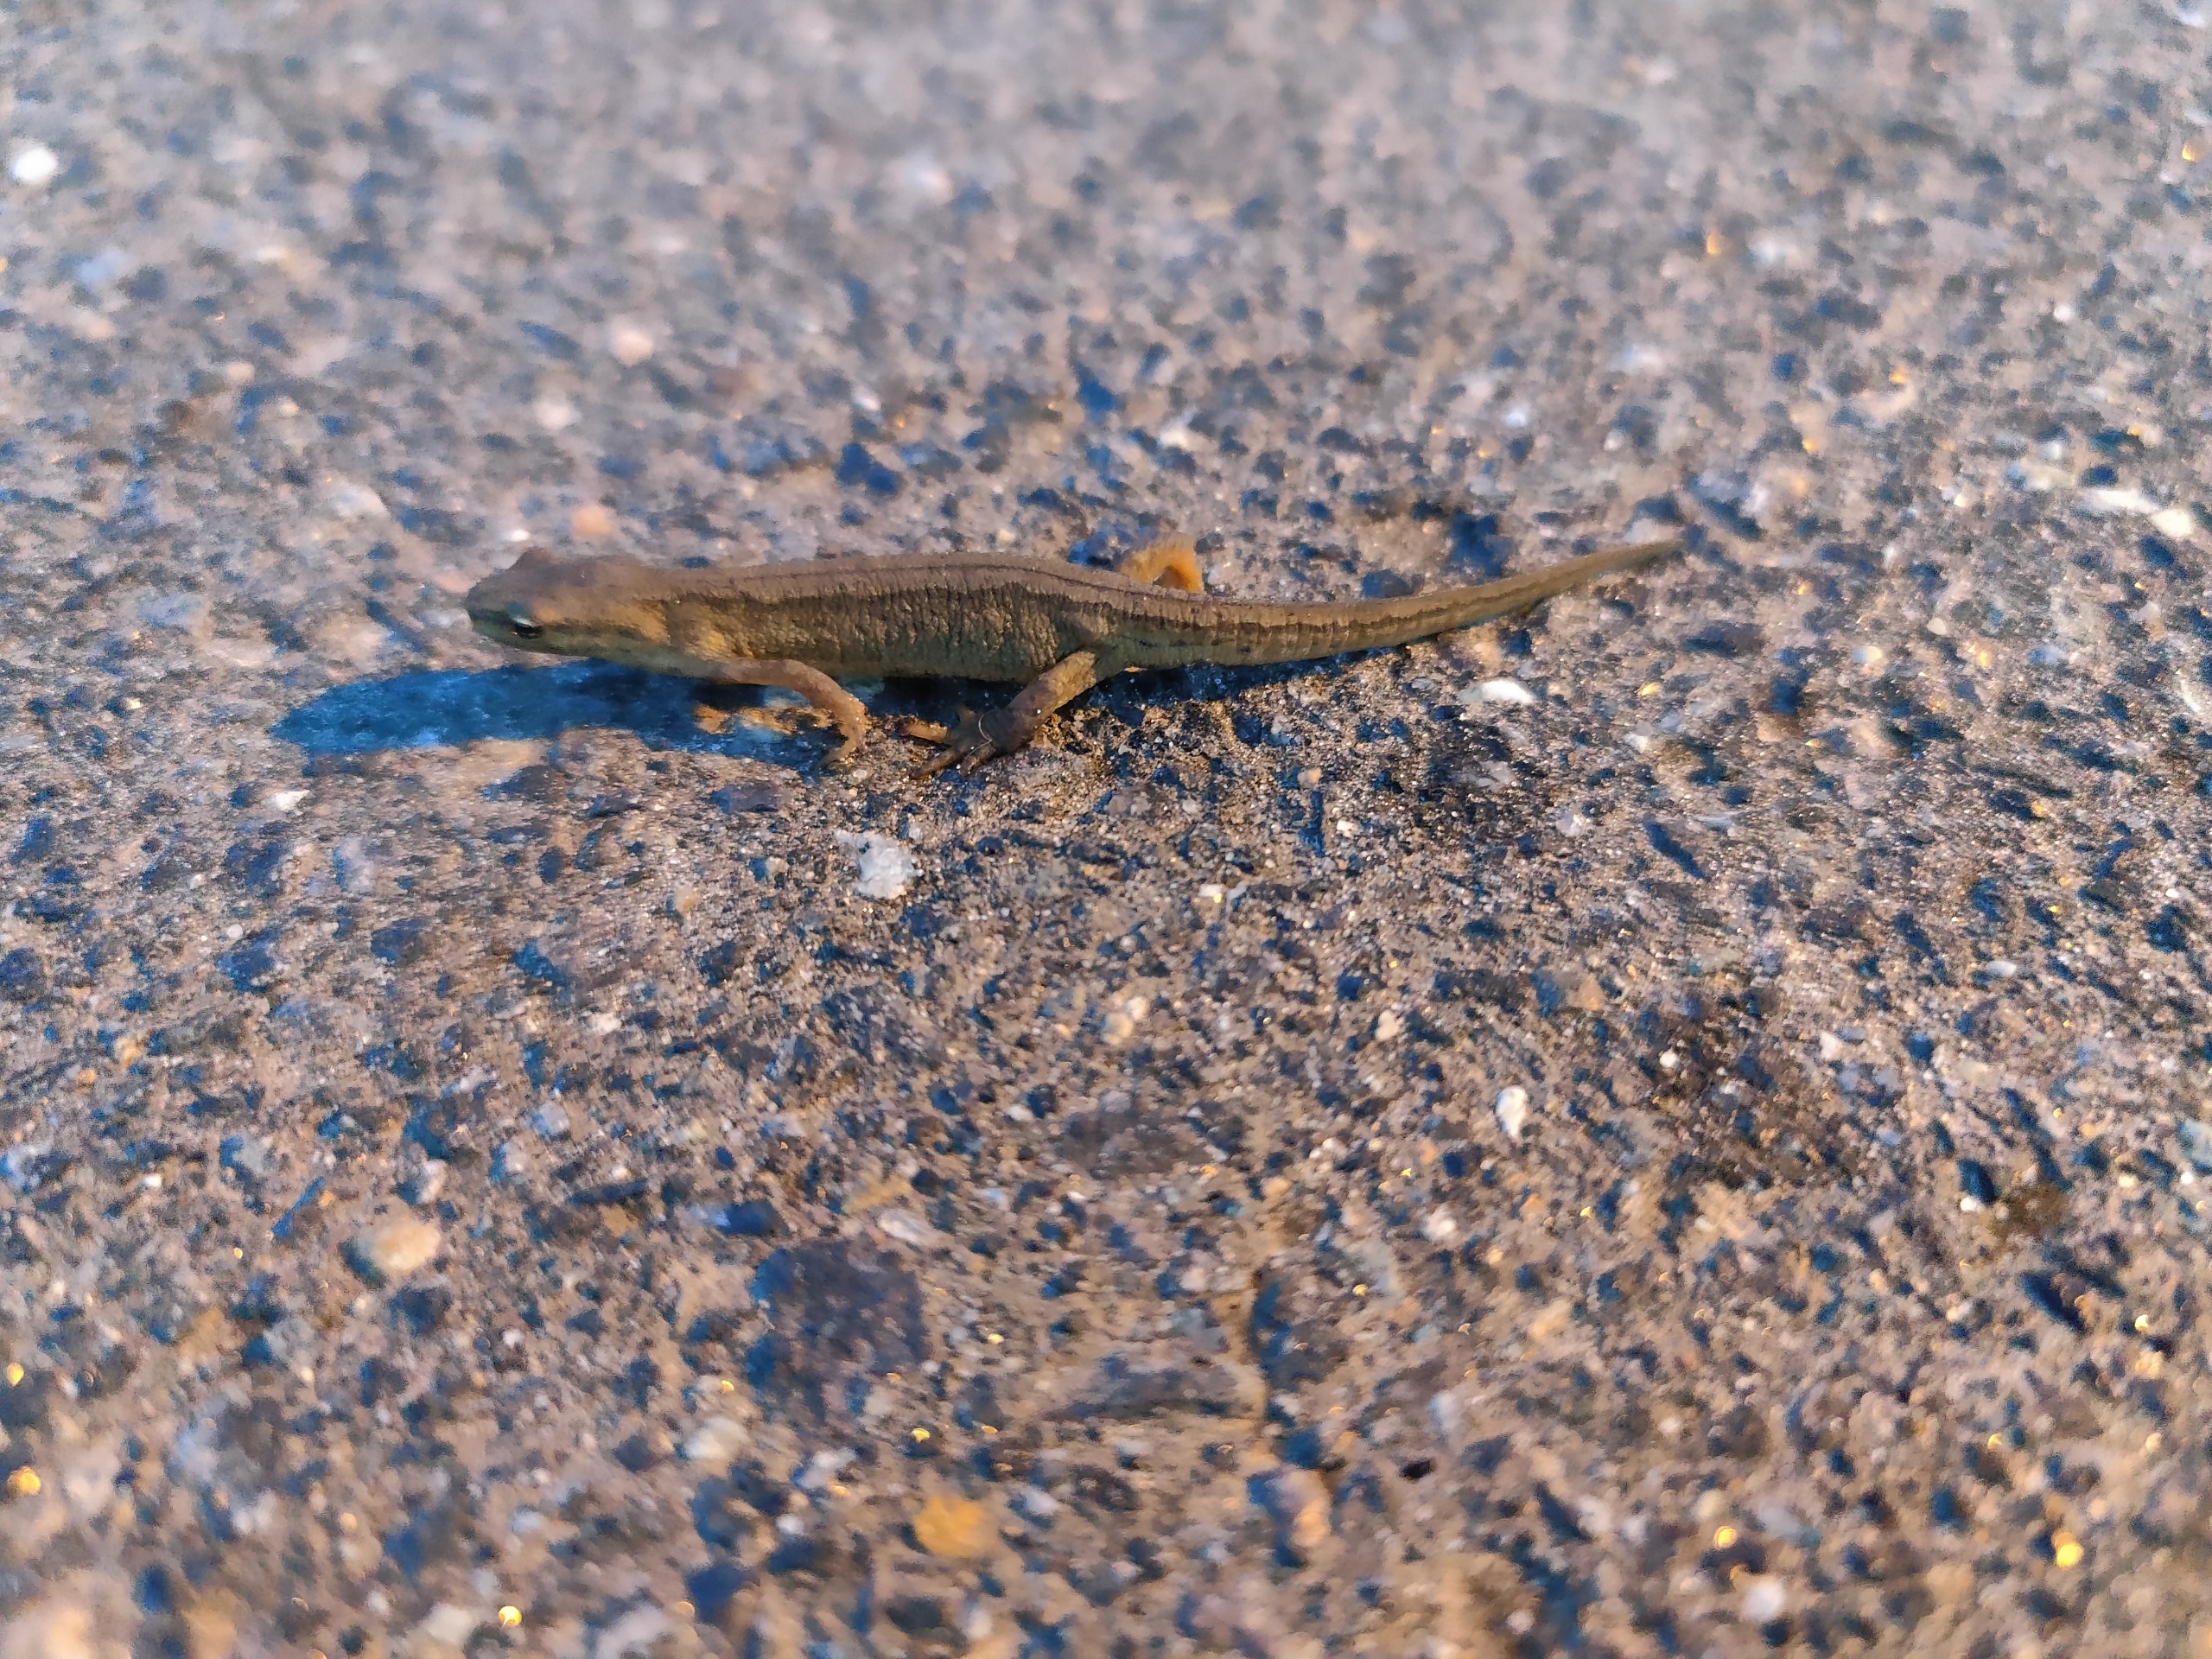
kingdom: Animalia
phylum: Chordata
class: Amphibia
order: Caudata
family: Salamandridae
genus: Lissotriton
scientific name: Lissotriton vulgaris
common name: Lille vandsalamander
